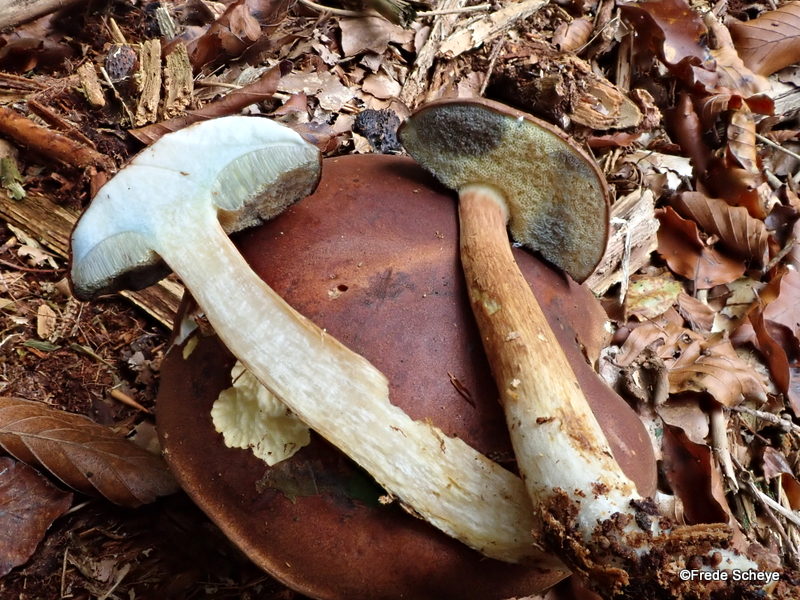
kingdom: Fungi
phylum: Basidiomycota
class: Agaricomycetes
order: Boletales
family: Boletaceae
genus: Imleria
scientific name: Imleria badia
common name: brunstokket rørhat
